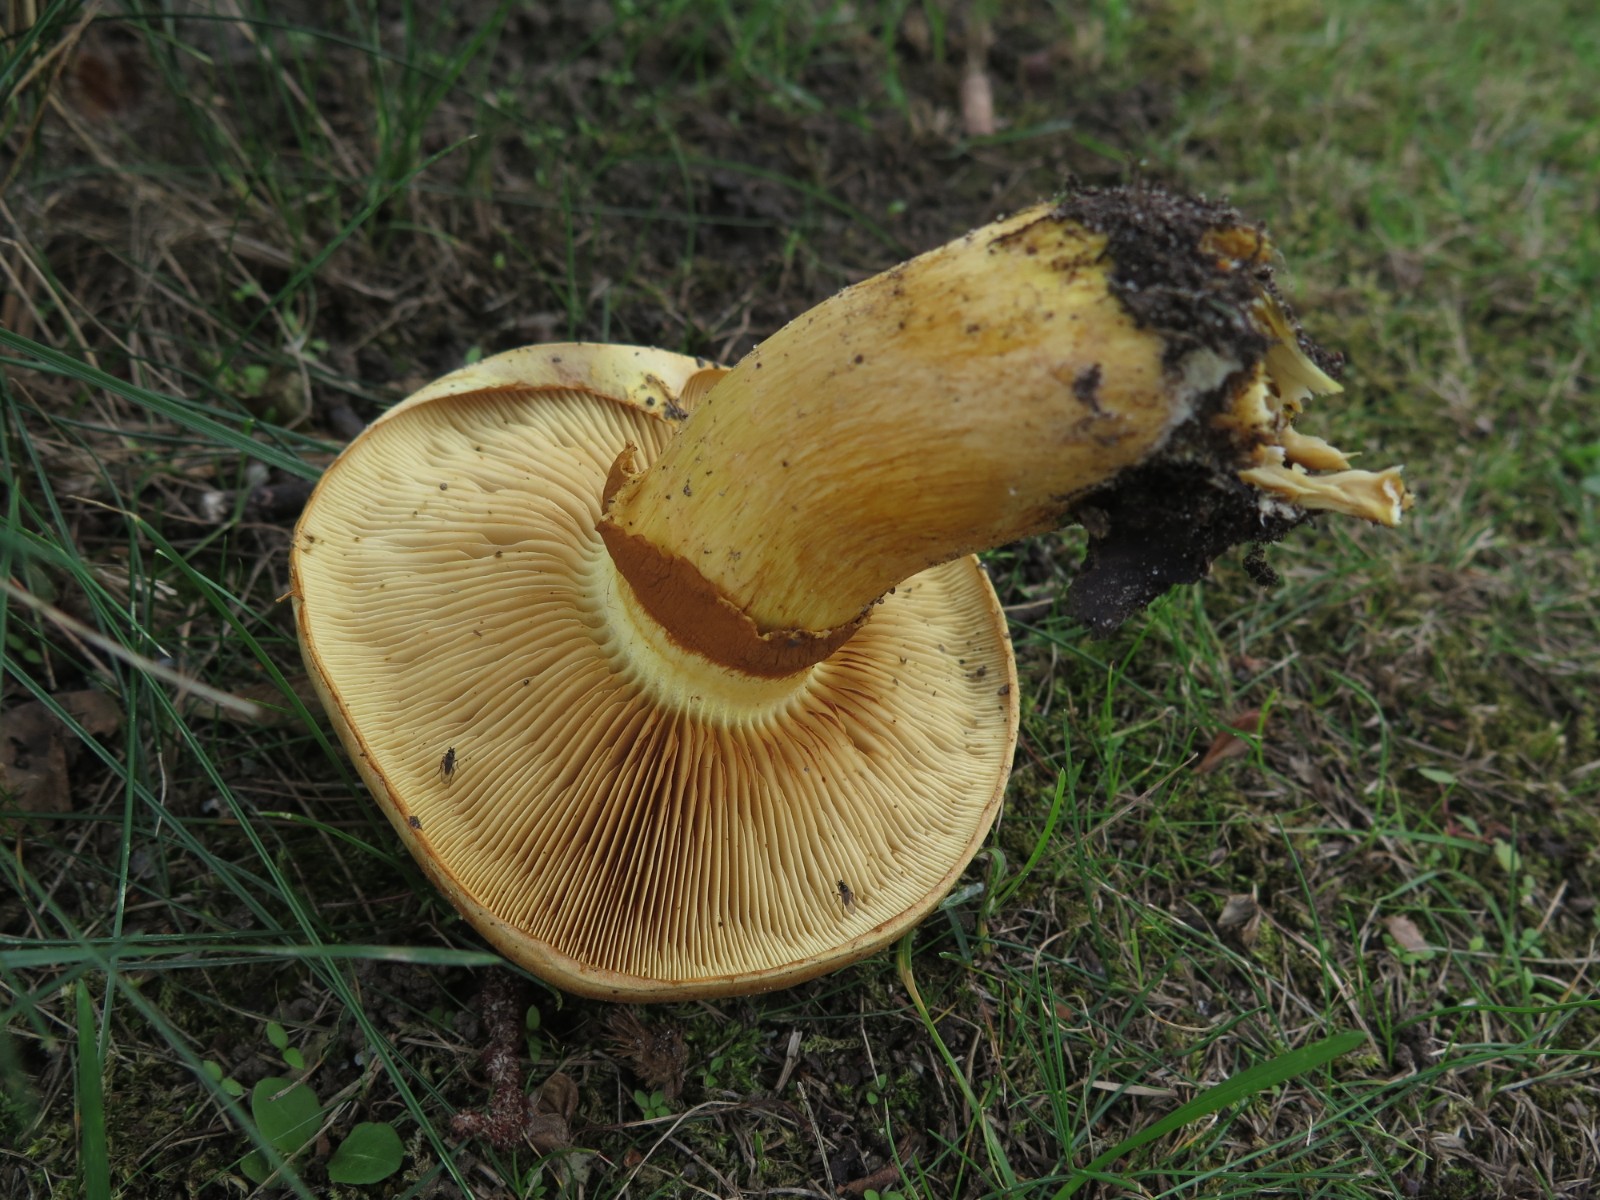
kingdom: Fungi
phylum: Basidiomycota
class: Agaricomycetes
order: Agaricales
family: Hymenogastraceae
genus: Gymnopilus
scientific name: Gymnopilus spectabilis
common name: fibret flammehat
